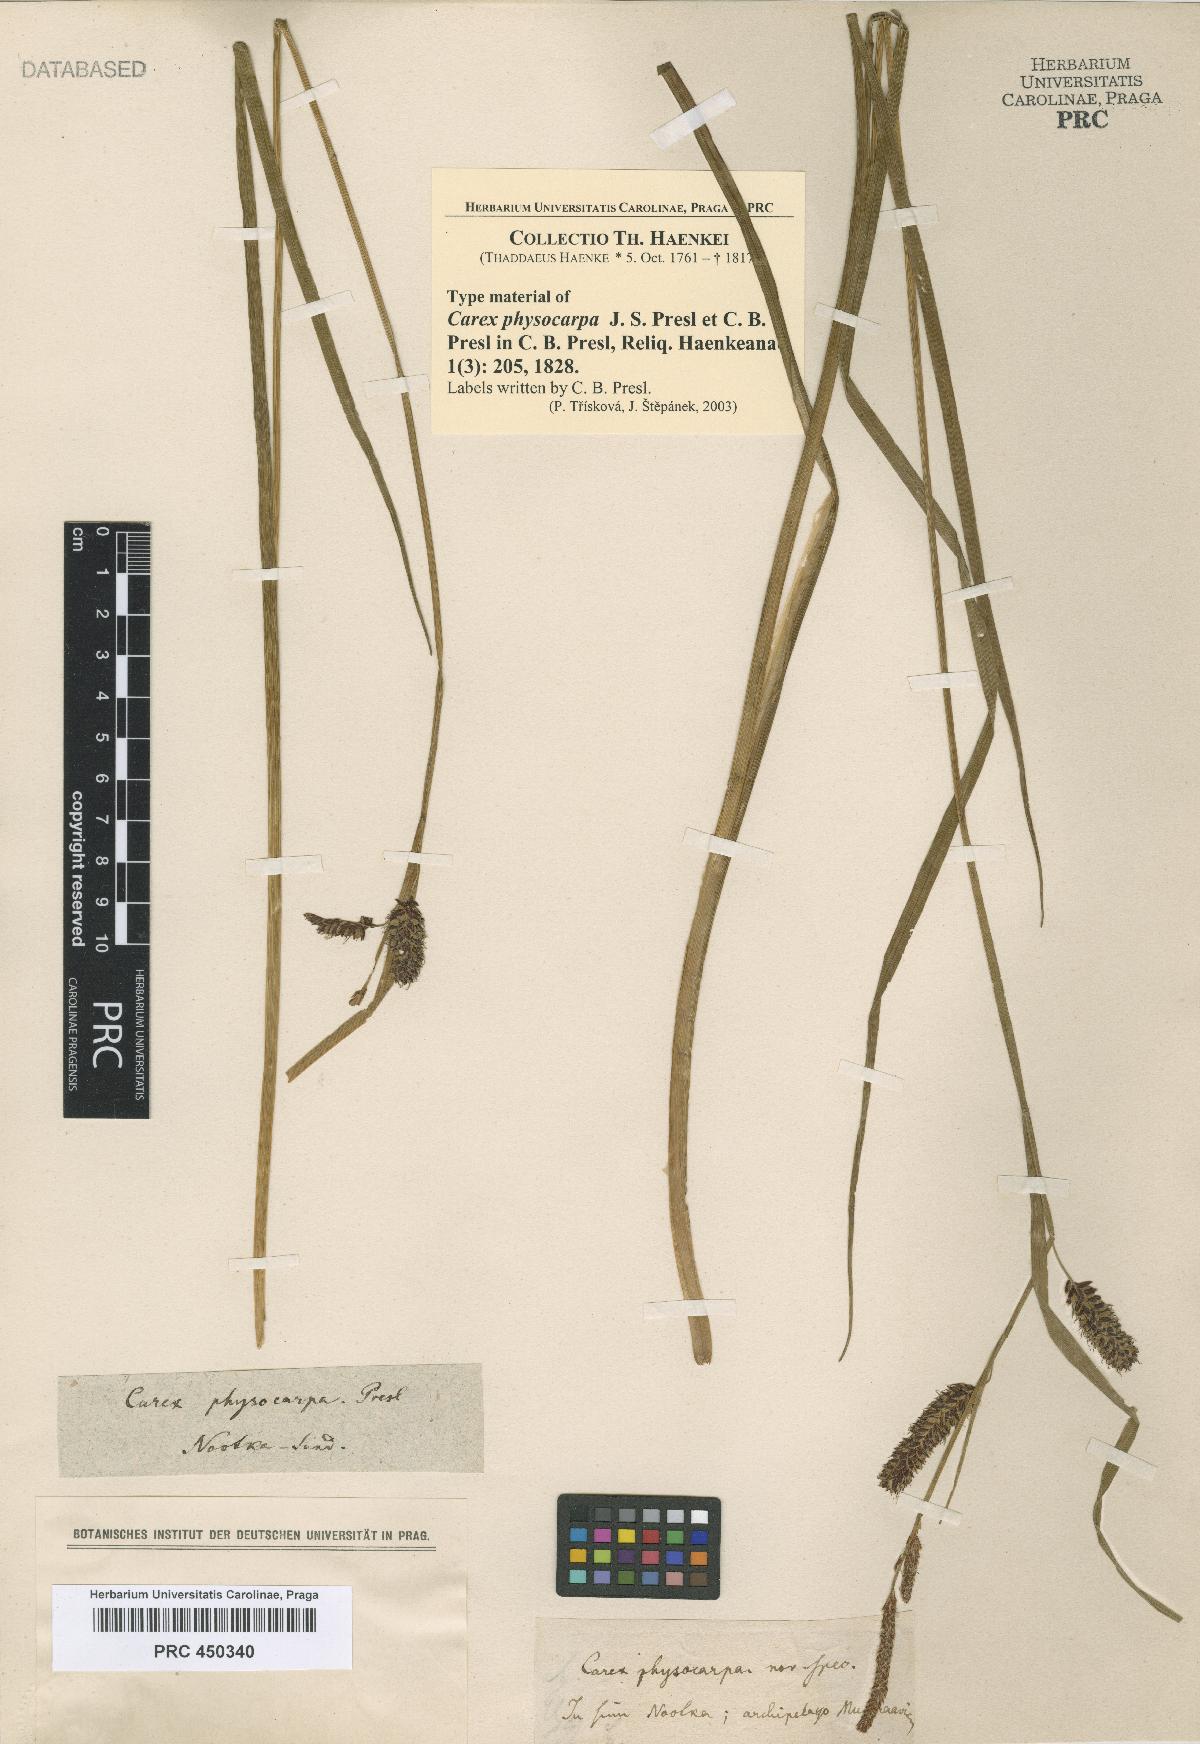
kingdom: Plantae
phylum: Tracheophyta
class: Liliopsida
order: Poales
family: Cyperaceae
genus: Carex
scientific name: Carex saxatilis
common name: Russet sedge
